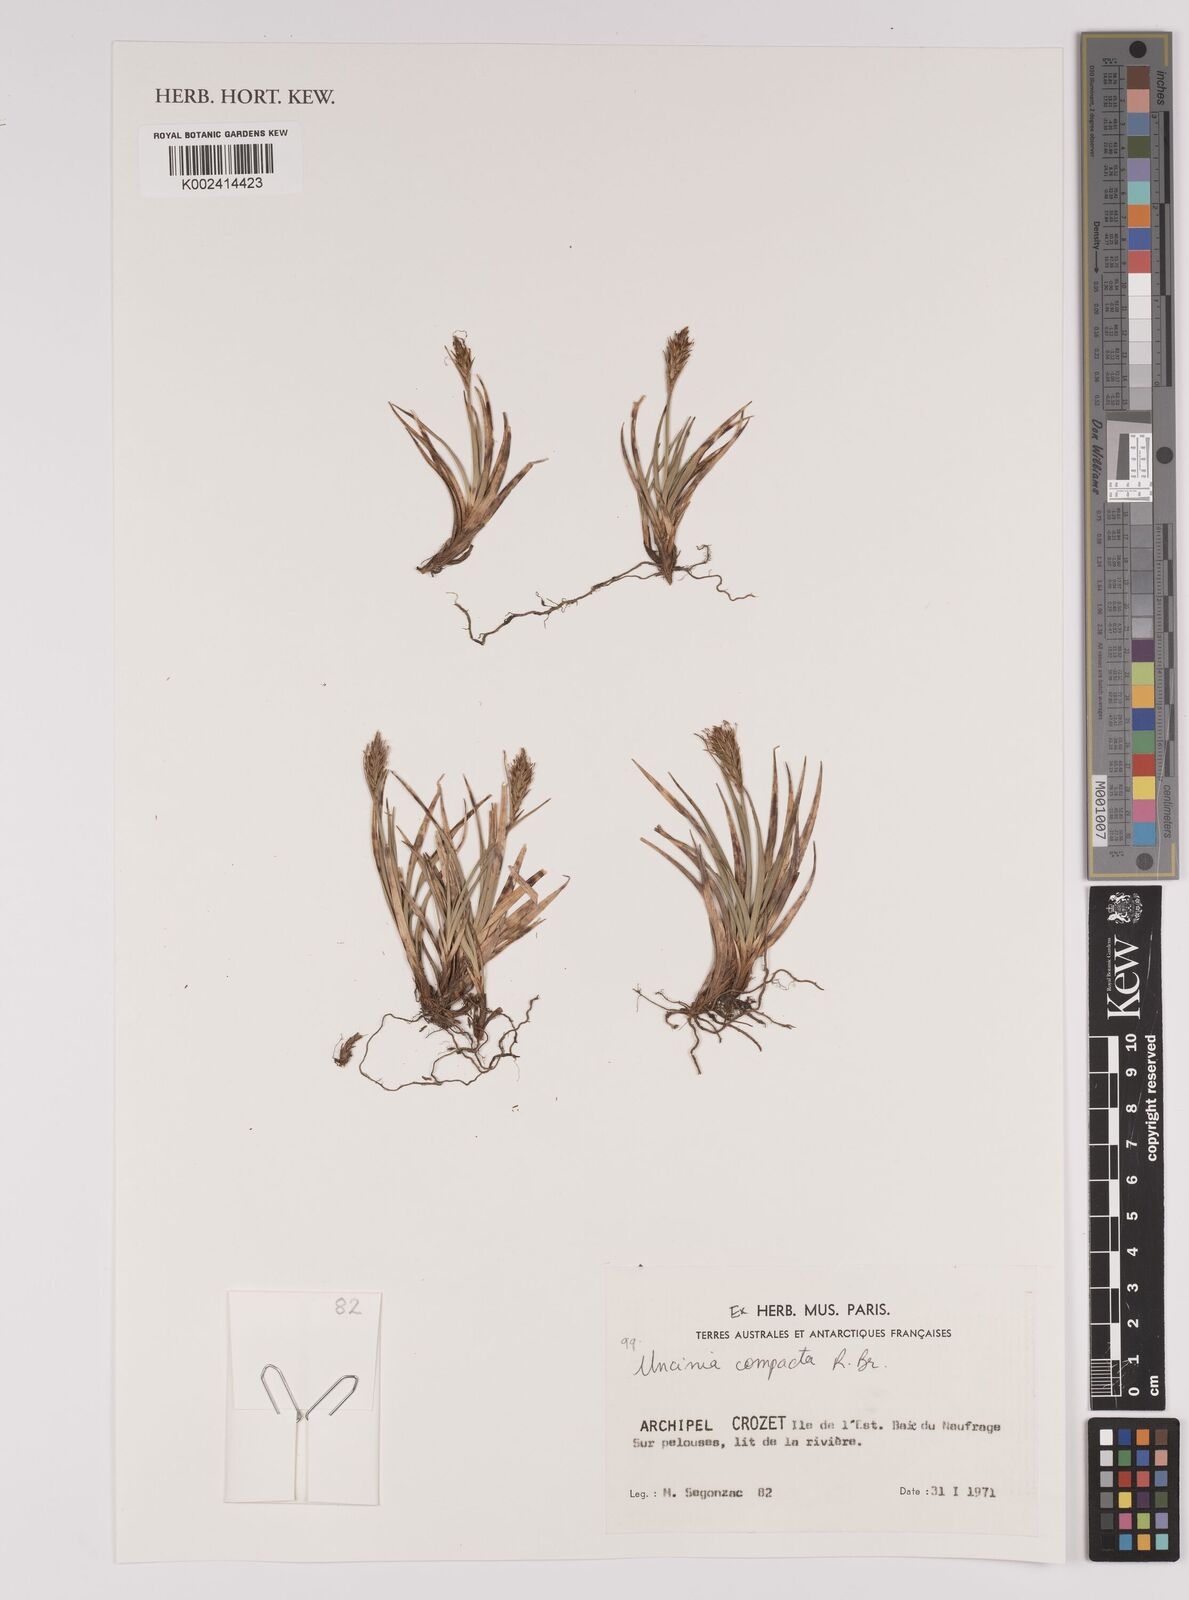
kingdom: Plantae
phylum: Tracheophyta
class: Liliopsida
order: Poales
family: Cyperaceae
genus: Carex
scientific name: Carex austrocompacta
